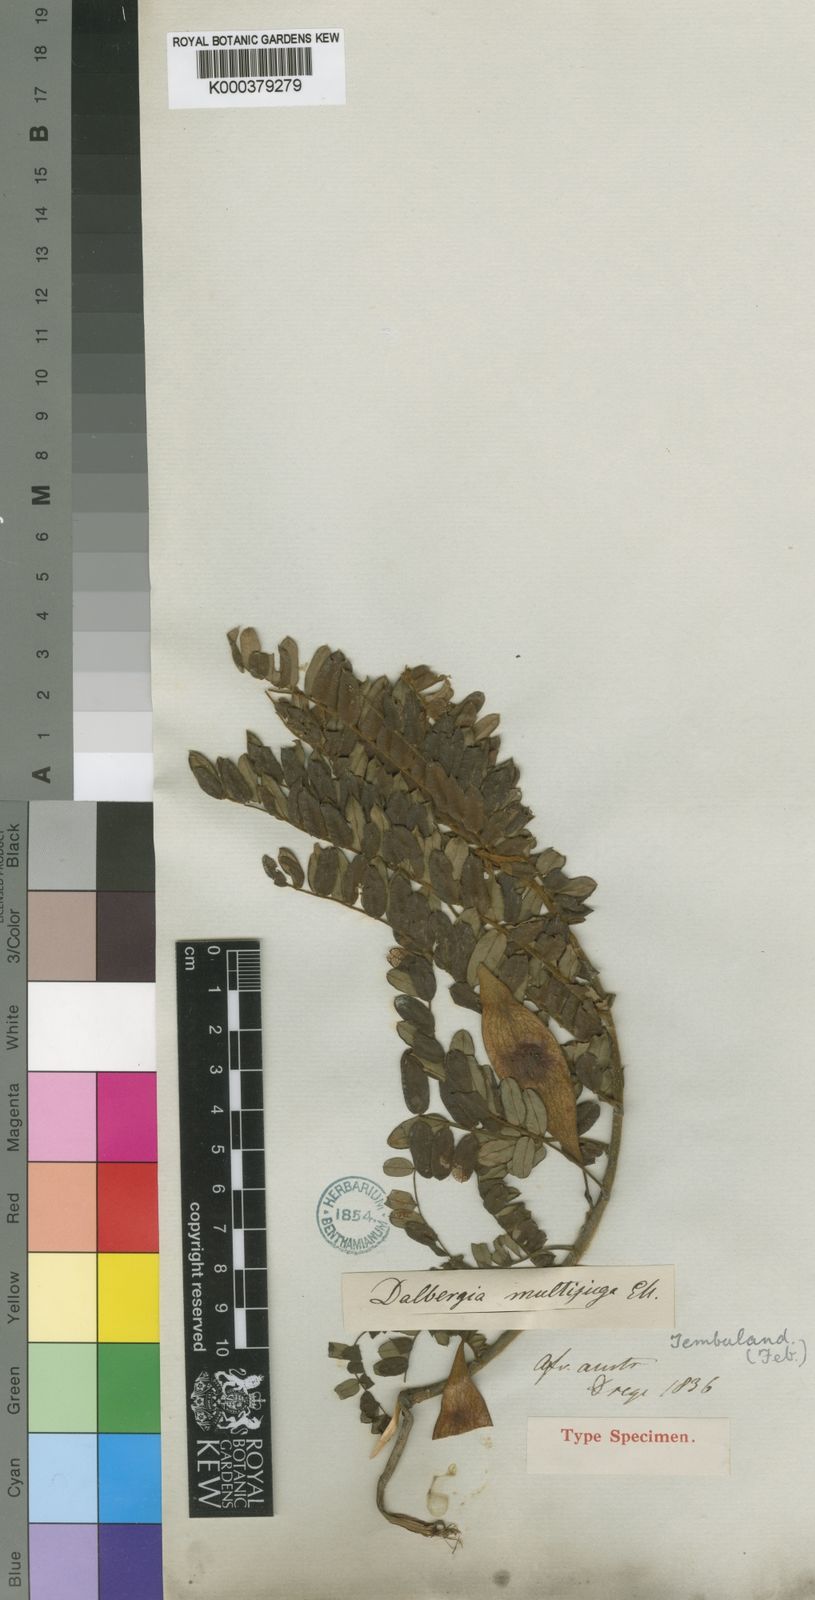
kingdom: Plantae
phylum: Tracheophyta
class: Magnoliopsida
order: Fabales
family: Fabaceae
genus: Dalbergia
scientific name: Dalbergia multijuga
